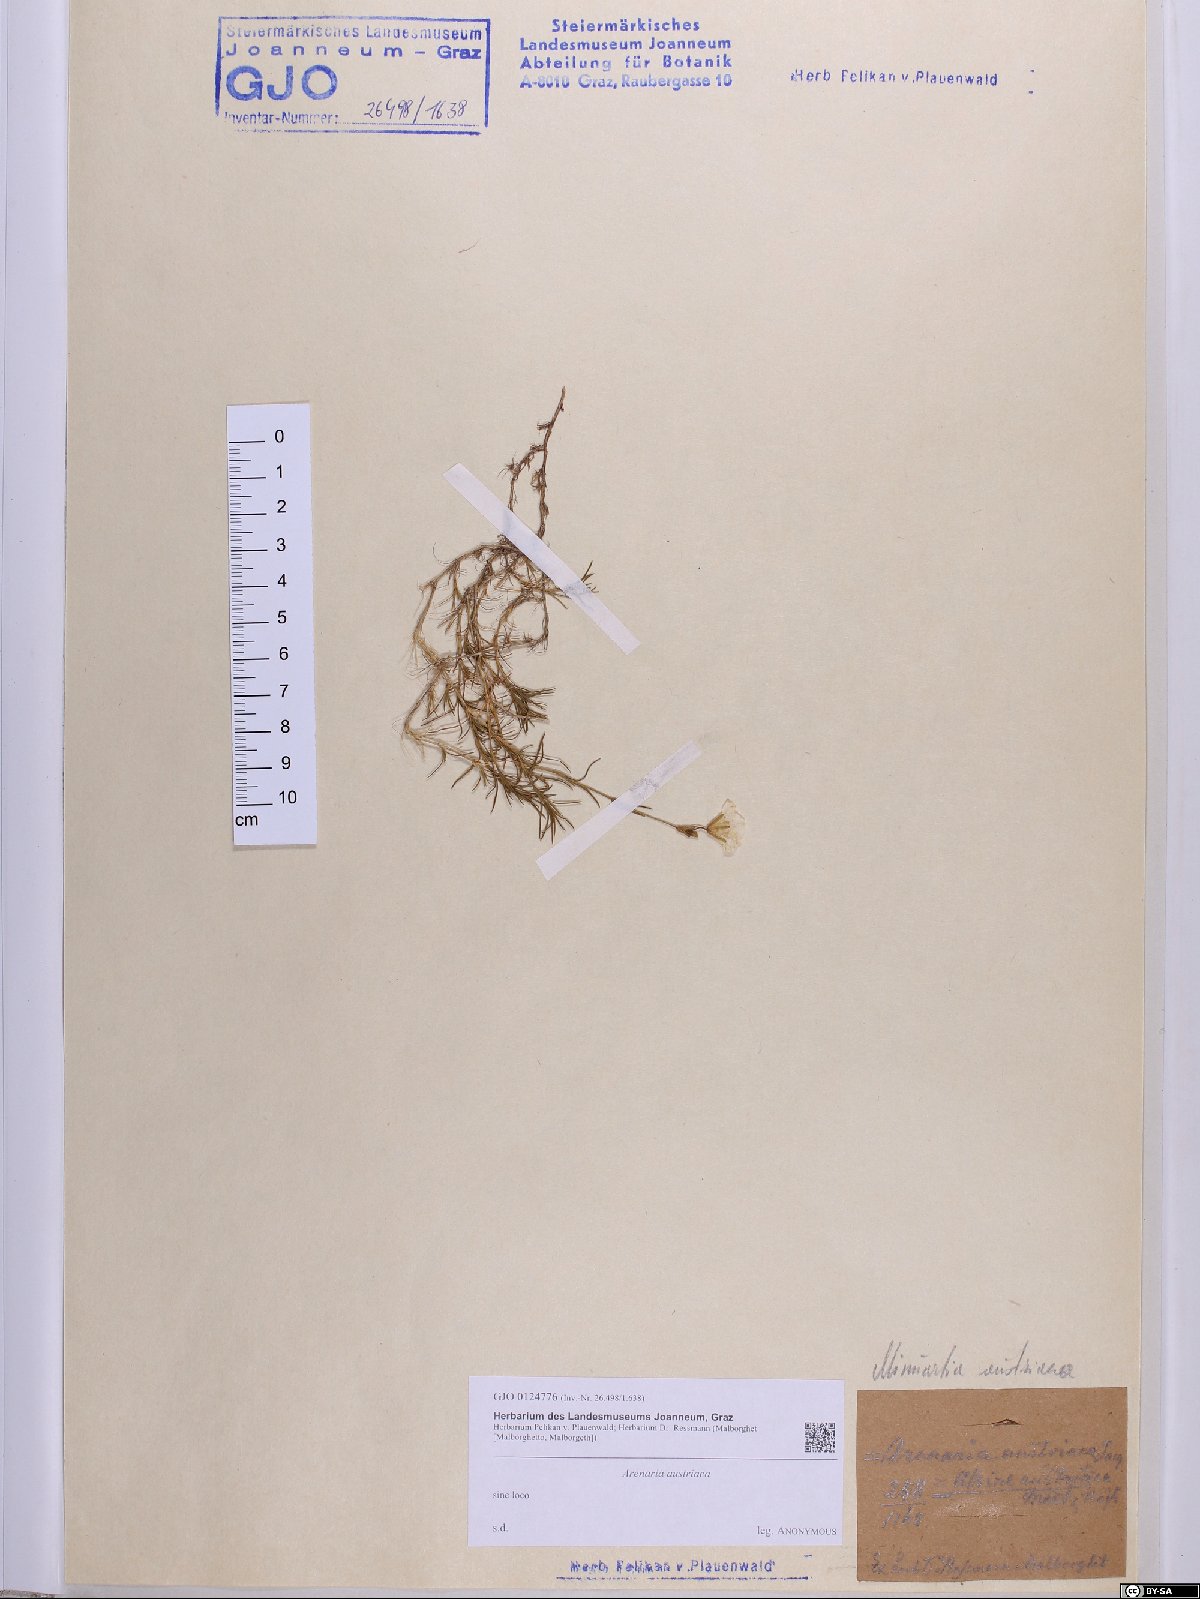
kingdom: Plantae
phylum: Tracheophyta
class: Magnoliopsida
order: Caryophyllales
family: Caryophyllaceae
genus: Sabulina
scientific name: Sabulina austriaca
